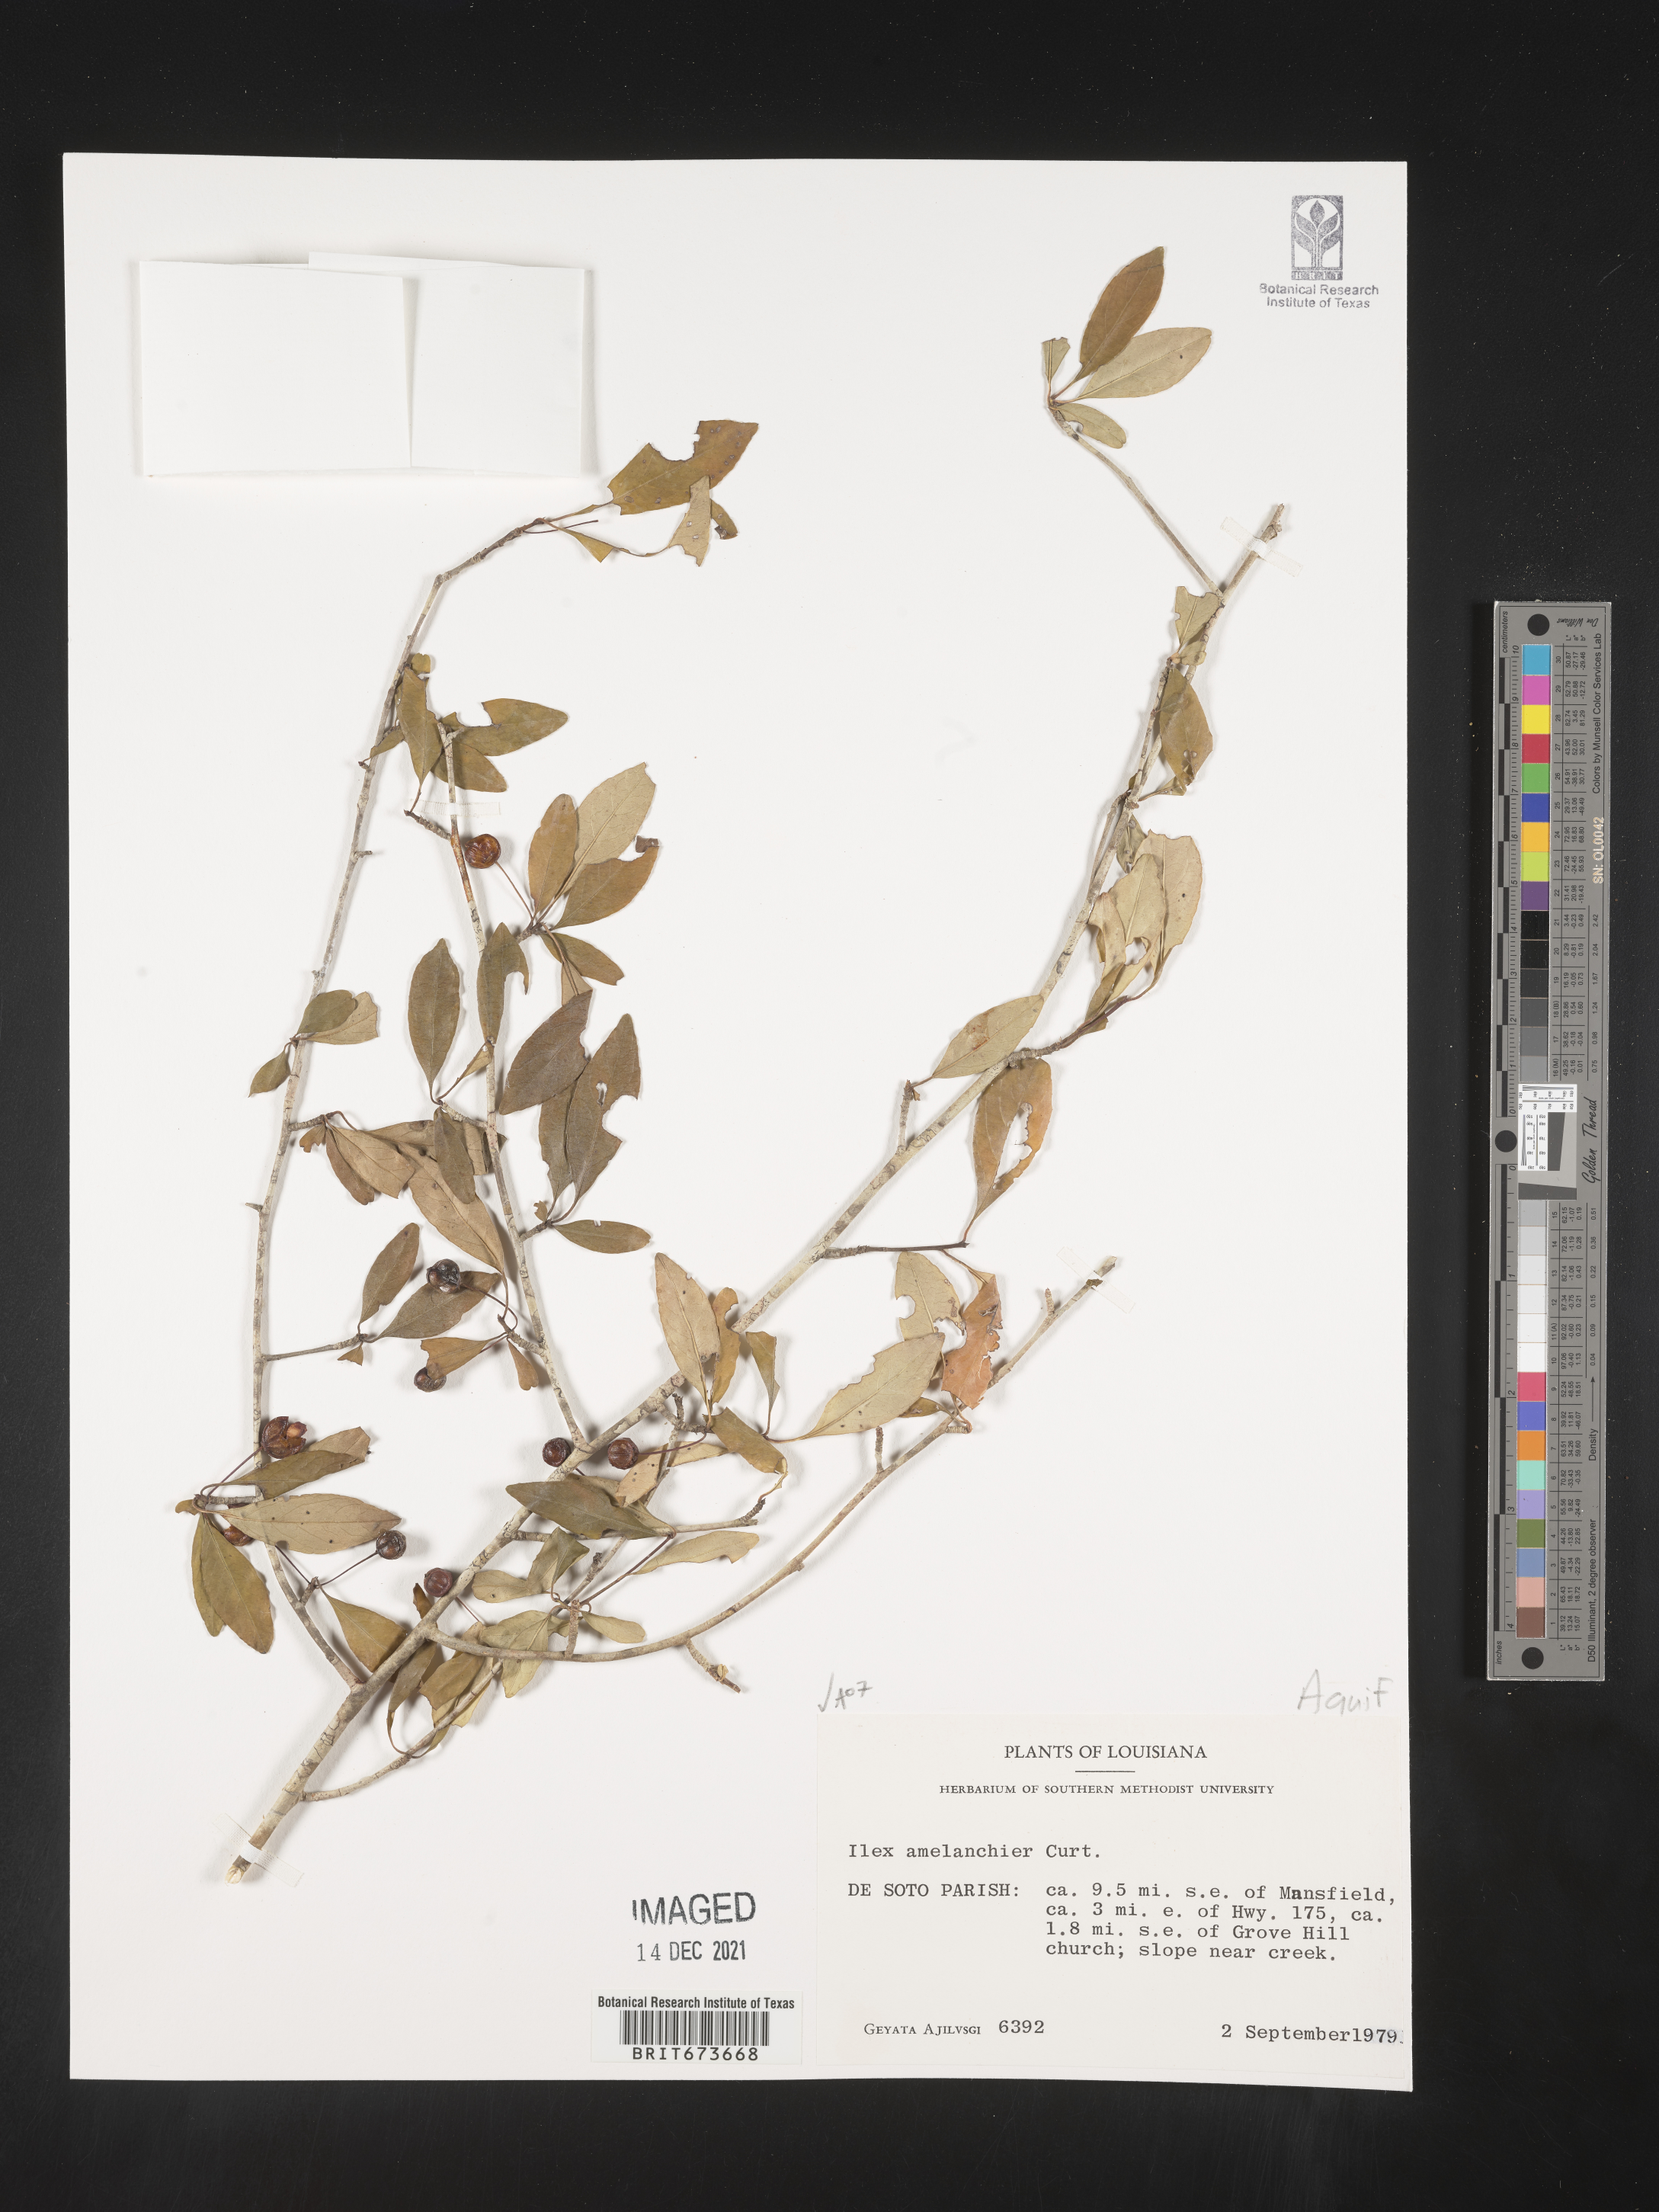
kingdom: Plantae
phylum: Tracheophyta
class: Magnoliopsida
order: Aquifoliales
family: Aquifoliaceae
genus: Ilex
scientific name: Ilex
